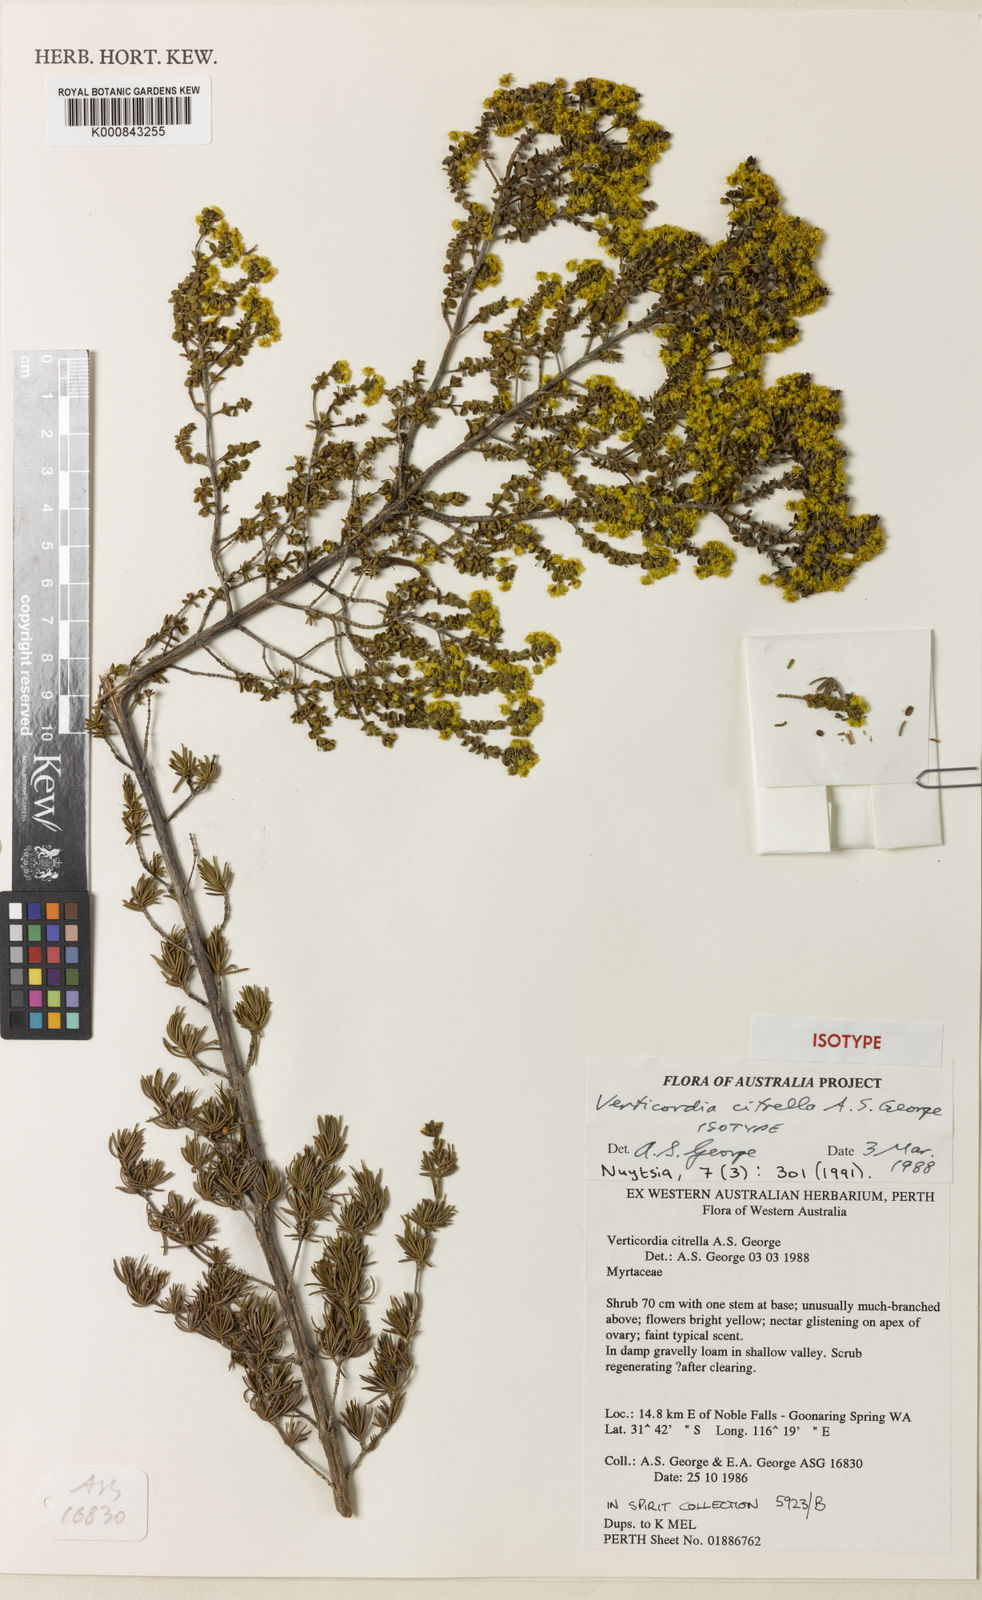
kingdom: Plantae
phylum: Tracheophyta
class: Magnoliopsida
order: Myrtales
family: Myrtaceae
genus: Verticordia
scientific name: Verticordia citrella
